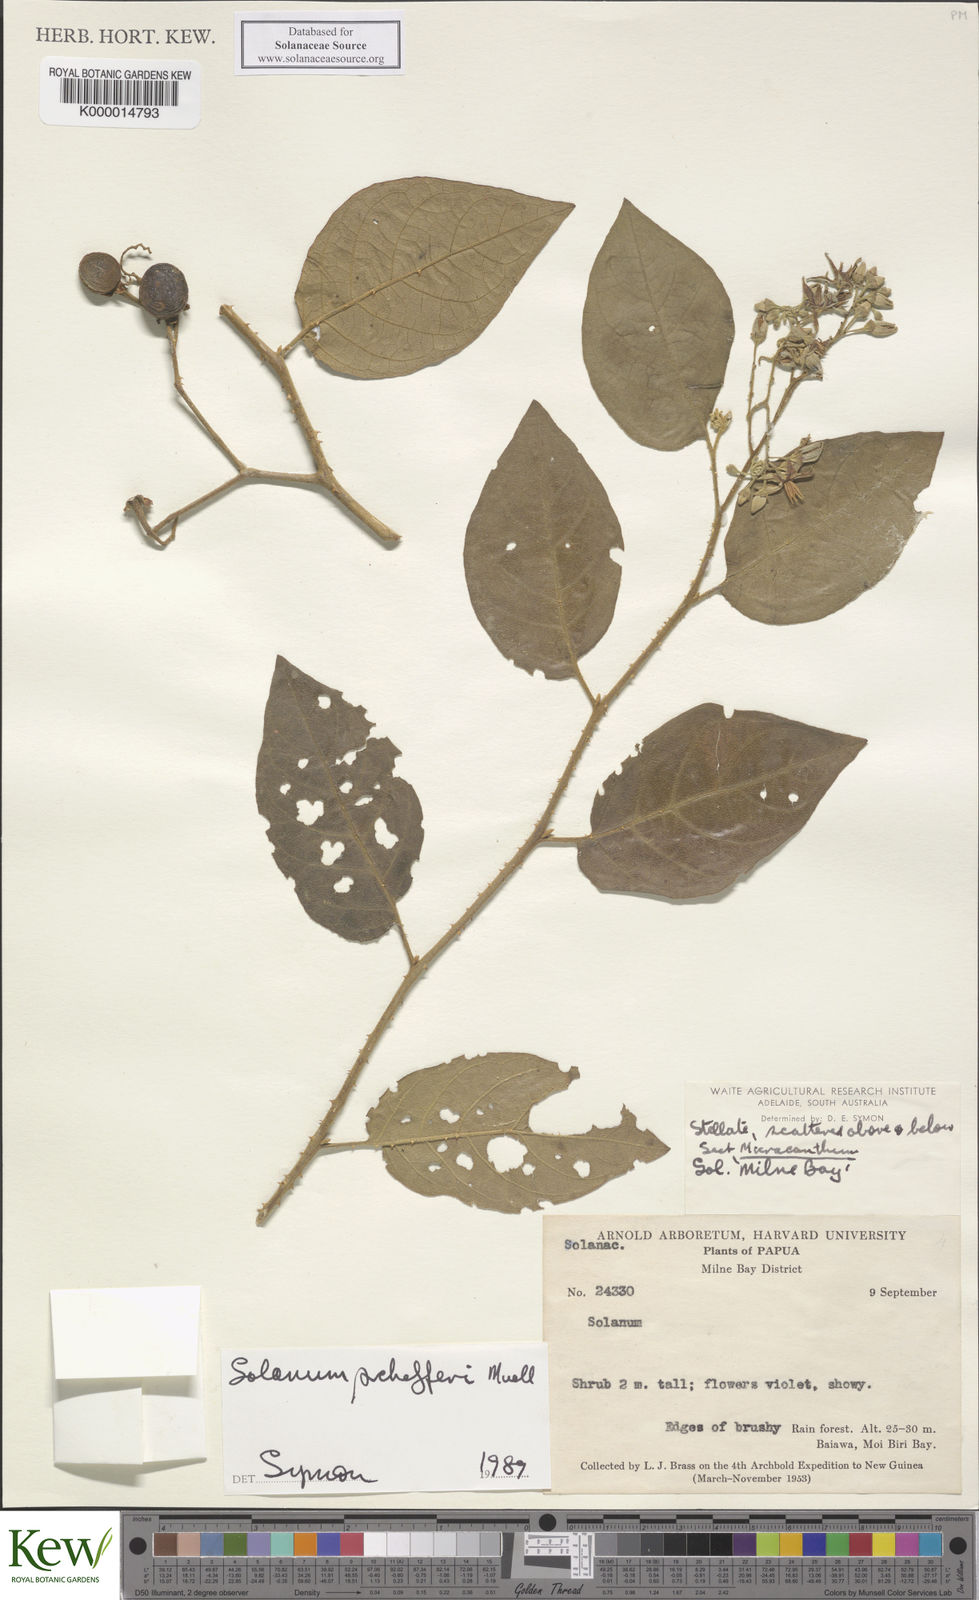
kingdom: Plantae
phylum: Tracheophyta
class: Magnoliopsida
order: Solanales
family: Solanaceae
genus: Solanum
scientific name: Solanum schefferi
